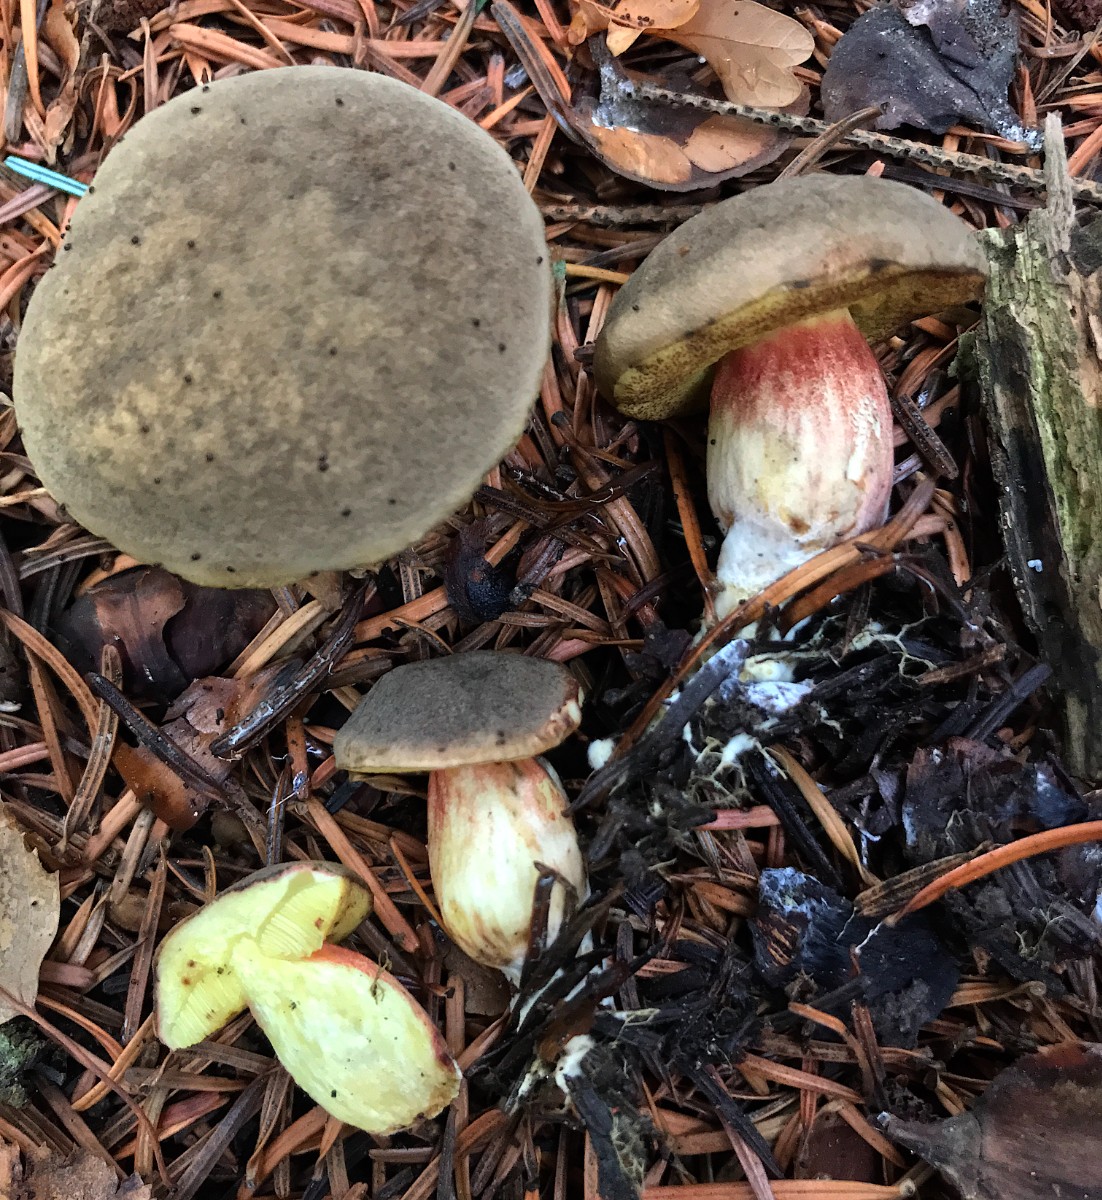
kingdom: Fungi
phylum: Basidiomycota
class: Agaricomycetes
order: Boletales
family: Boletaceae
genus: Xerocomellus
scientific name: Xerocomellus pruinatus
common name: dugget rørhat
